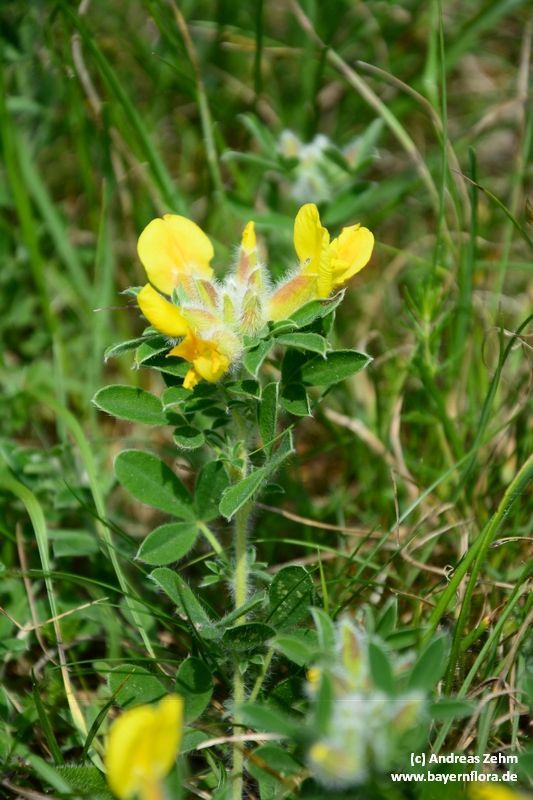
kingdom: Plantae
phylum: Tracheophyta
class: Magnoliopsida
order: Fabales
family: Fabaceae
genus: Chamaecytisus
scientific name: Chamaecytisus supinus
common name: Clustered broom
